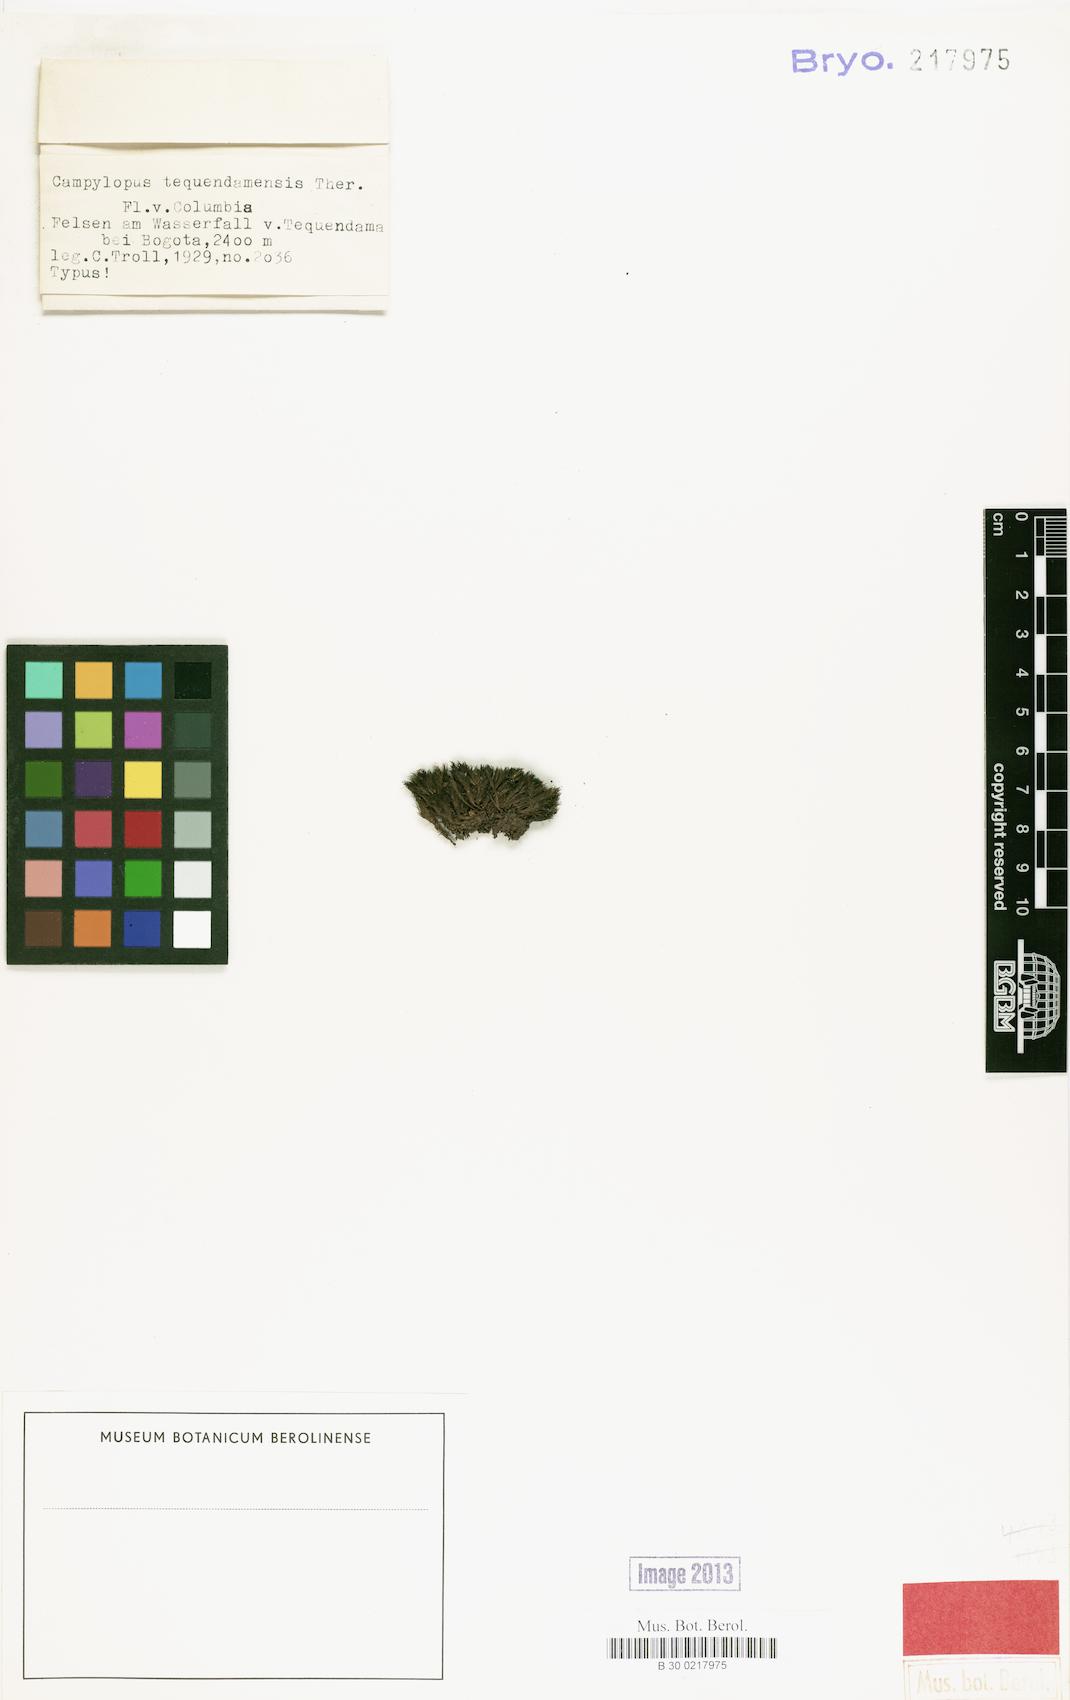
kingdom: Plantae
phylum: Bryophyta
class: Bryopsida
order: Dicranales
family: Leucobryaceae
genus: Campylopus
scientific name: Campylopus tallulensis
